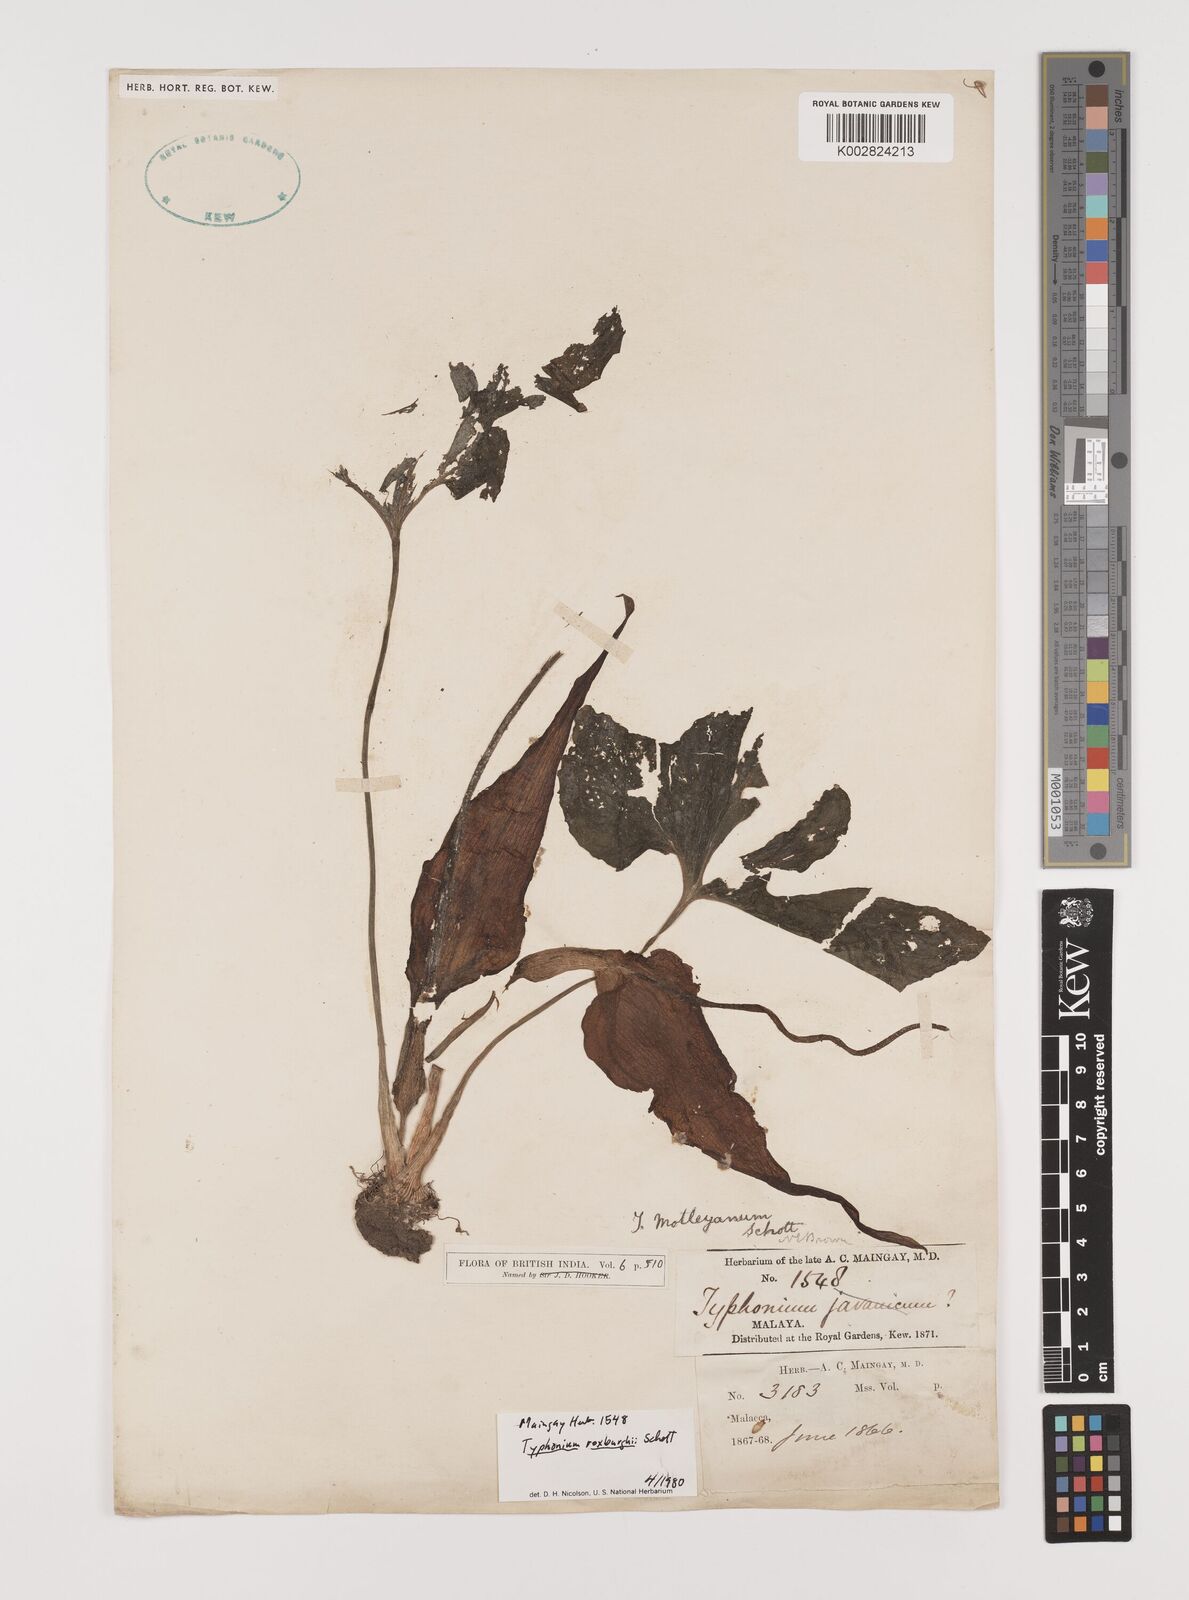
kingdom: Plantae
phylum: Tracheophyta
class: Liliopsida
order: Alismatales
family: Araceae
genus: Typhonium
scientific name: Typhonium roxburghii
